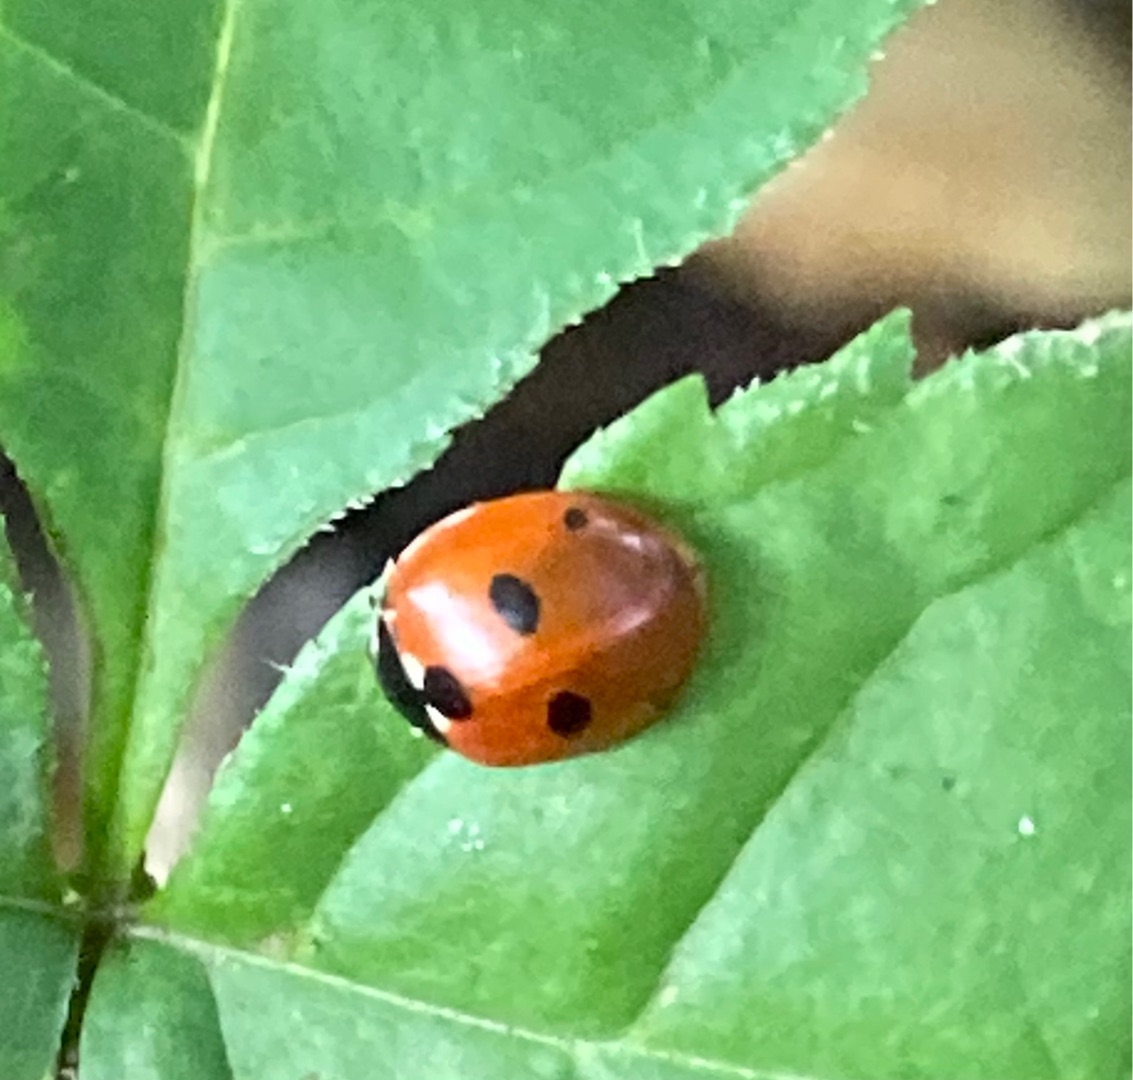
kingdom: Animalia
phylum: Arthropoda
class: Insecta
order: Coleoptera
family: Coccinellidae
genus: Coccinella
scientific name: Coccinella quinquepunctata
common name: Femplettet mariehøne
